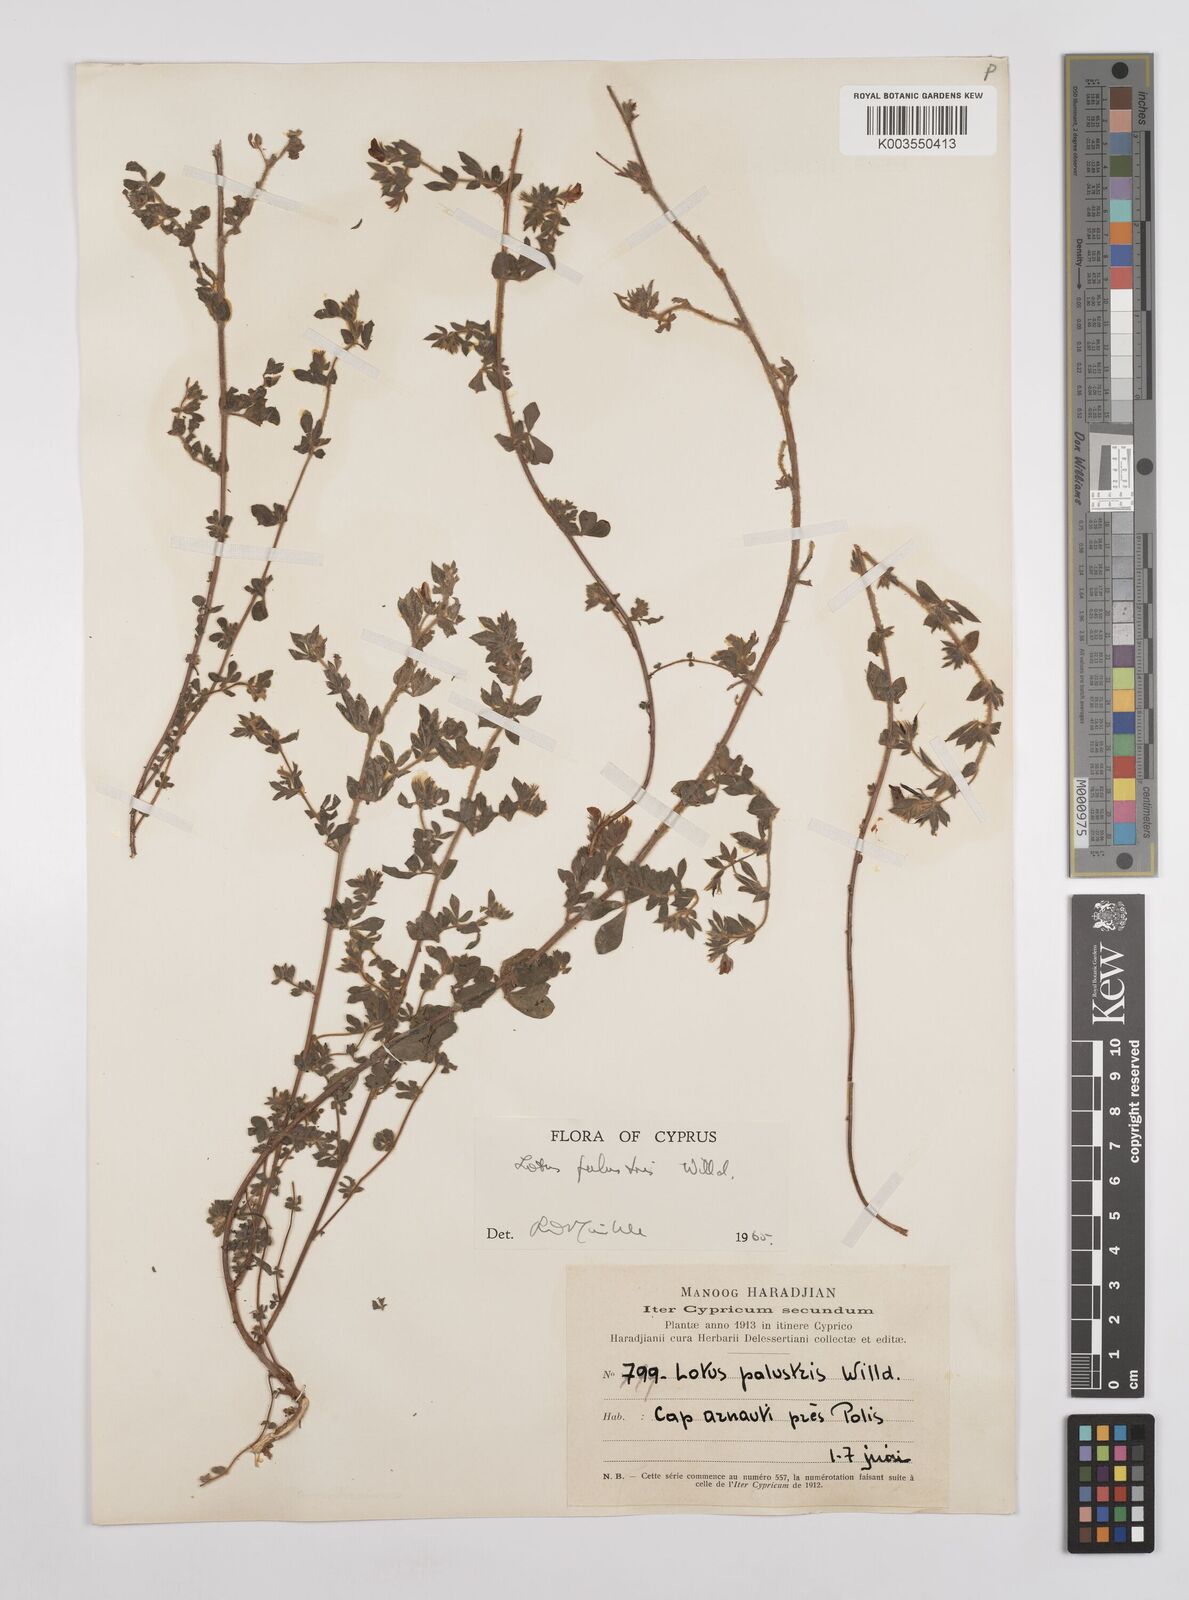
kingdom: Plantae
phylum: Tracheophyta
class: Magnoliopsida
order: Fabales
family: Fabaceae
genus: Lotus
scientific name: Lotus palustris
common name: Large birds-foot trefoil
